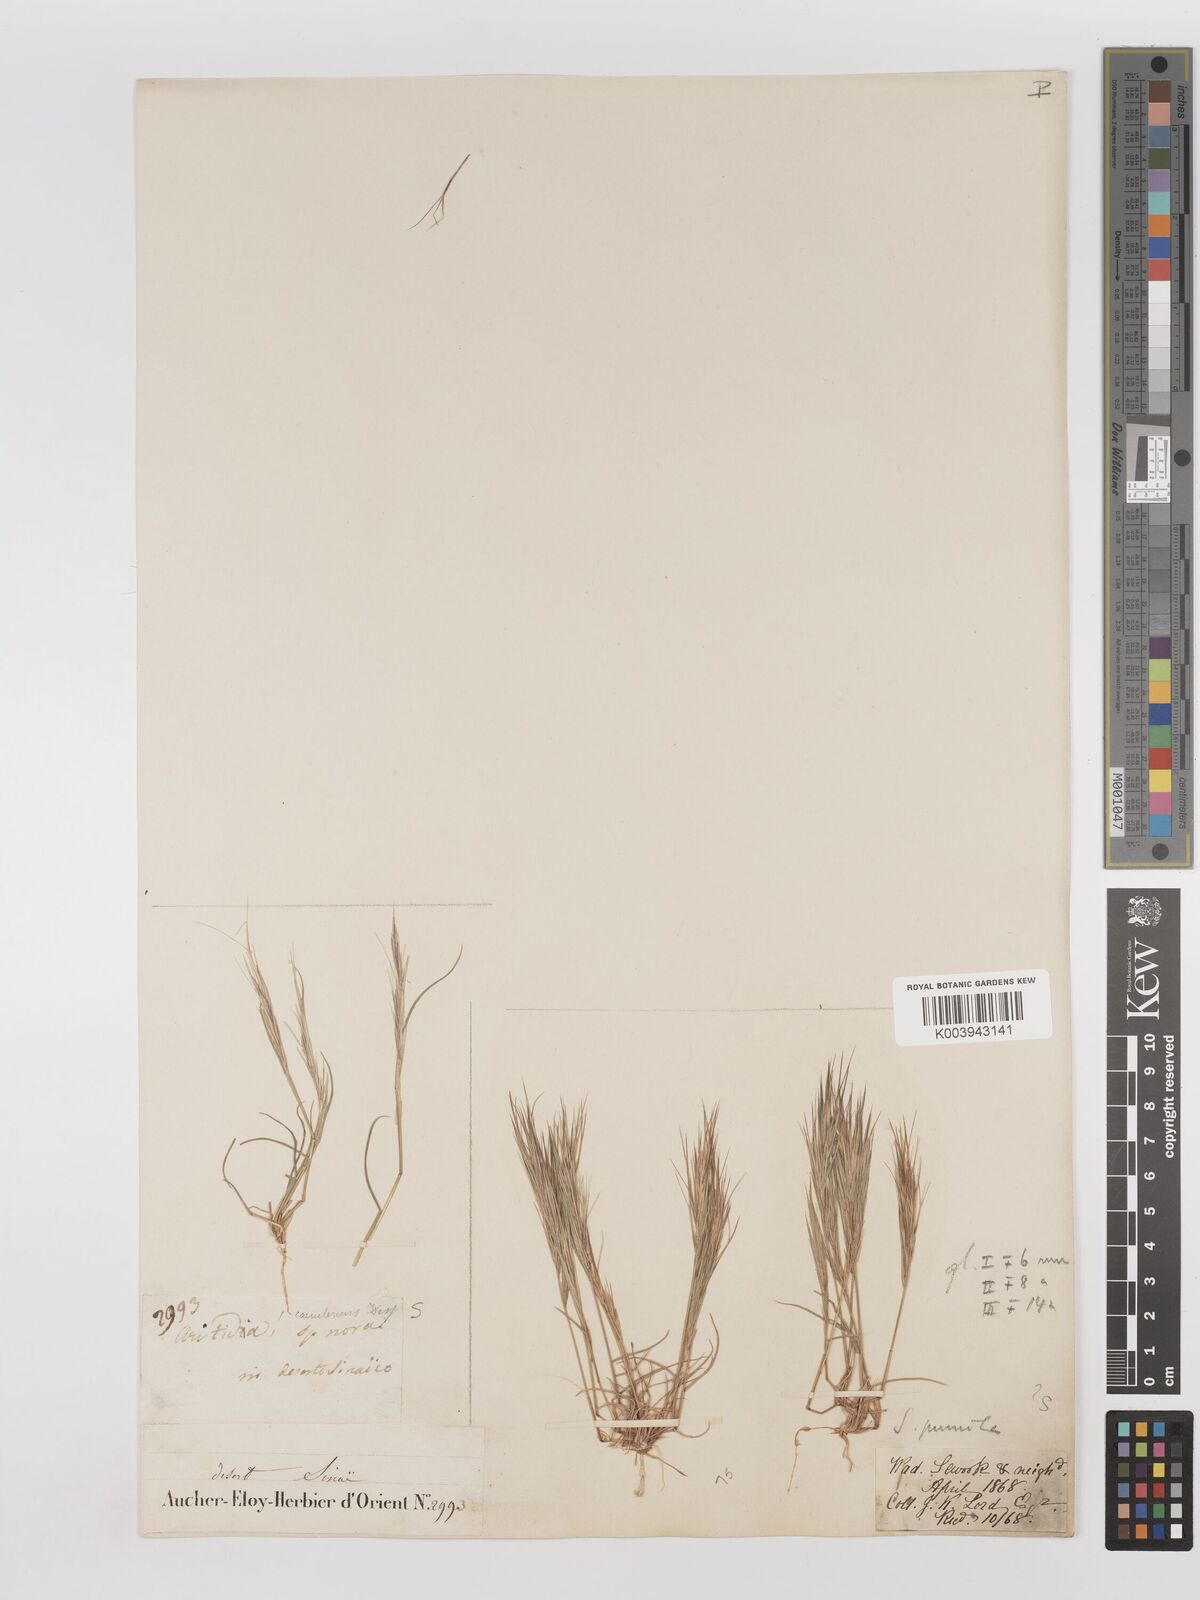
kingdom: Plantae
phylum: Tracheophyta
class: Liliopsida
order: Poales
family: Poaceae
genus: Aristida
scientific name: Aristida adscensionis
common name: Sixweeks threeawn
